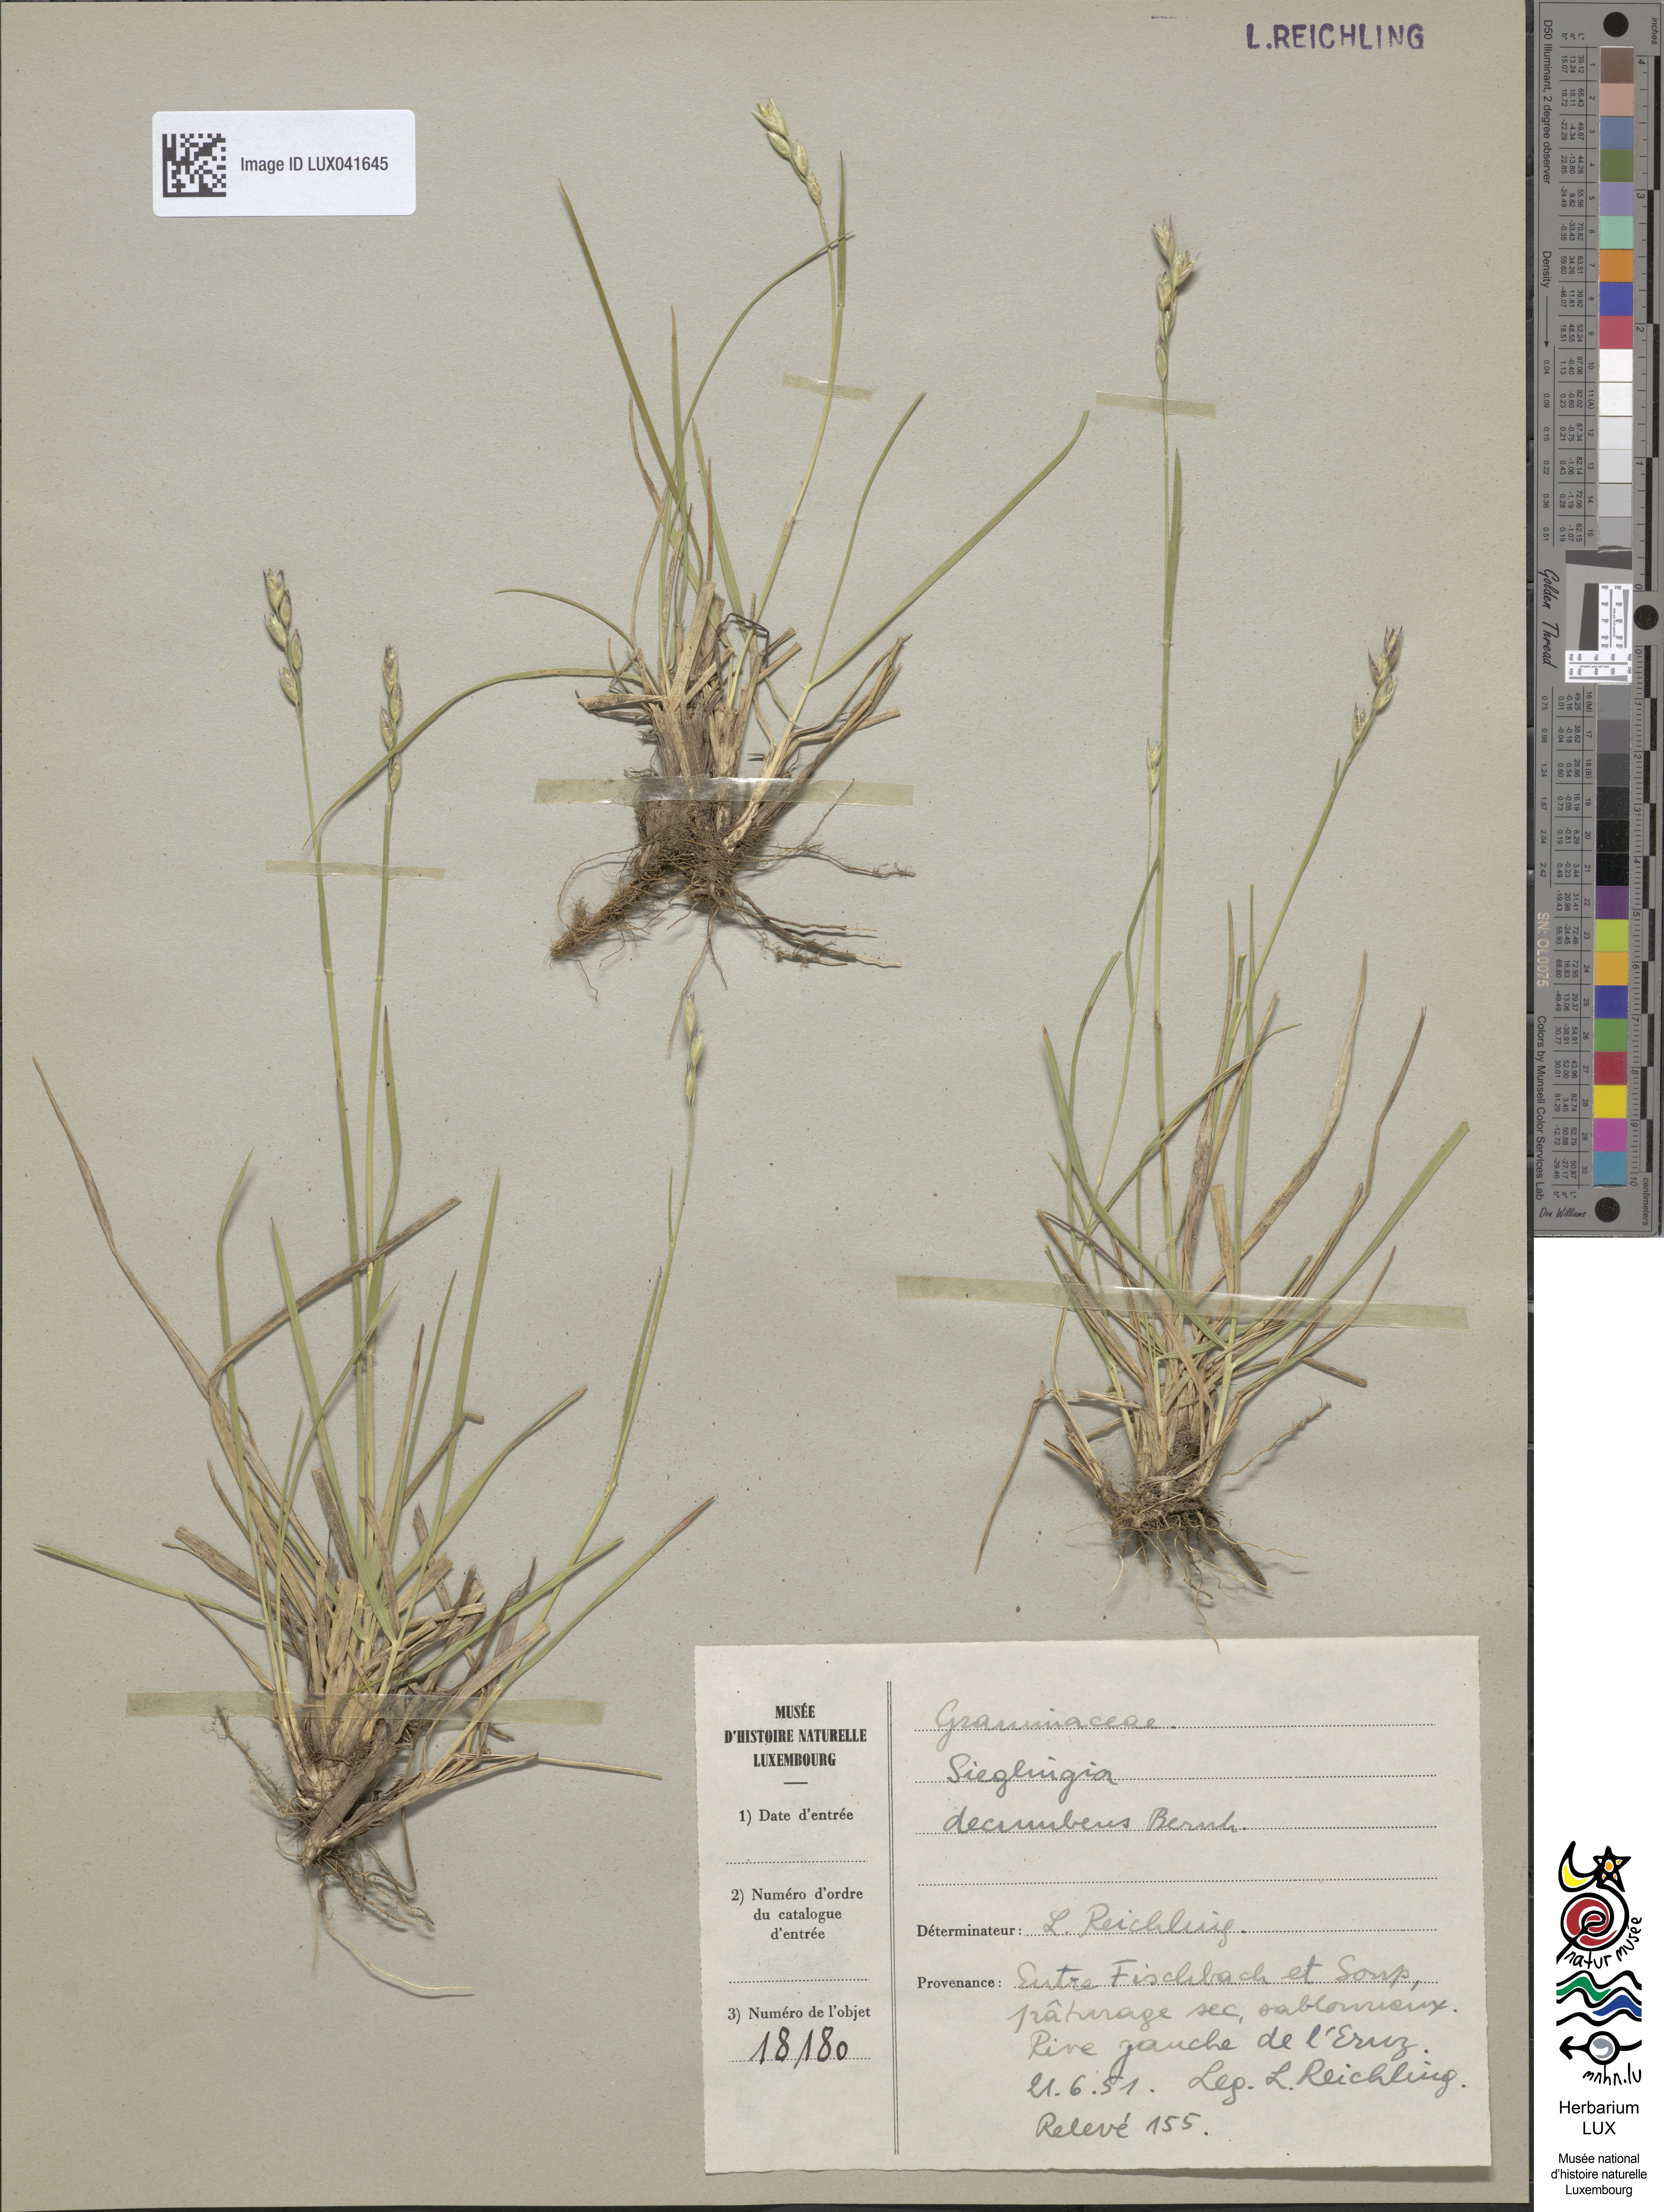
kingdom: Plantae
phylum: Tracheophyta
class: Liliopsida
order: Poales
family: Poaceae
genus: Danthonia
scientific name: Danthonia decumbens
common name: Common heathgrass
